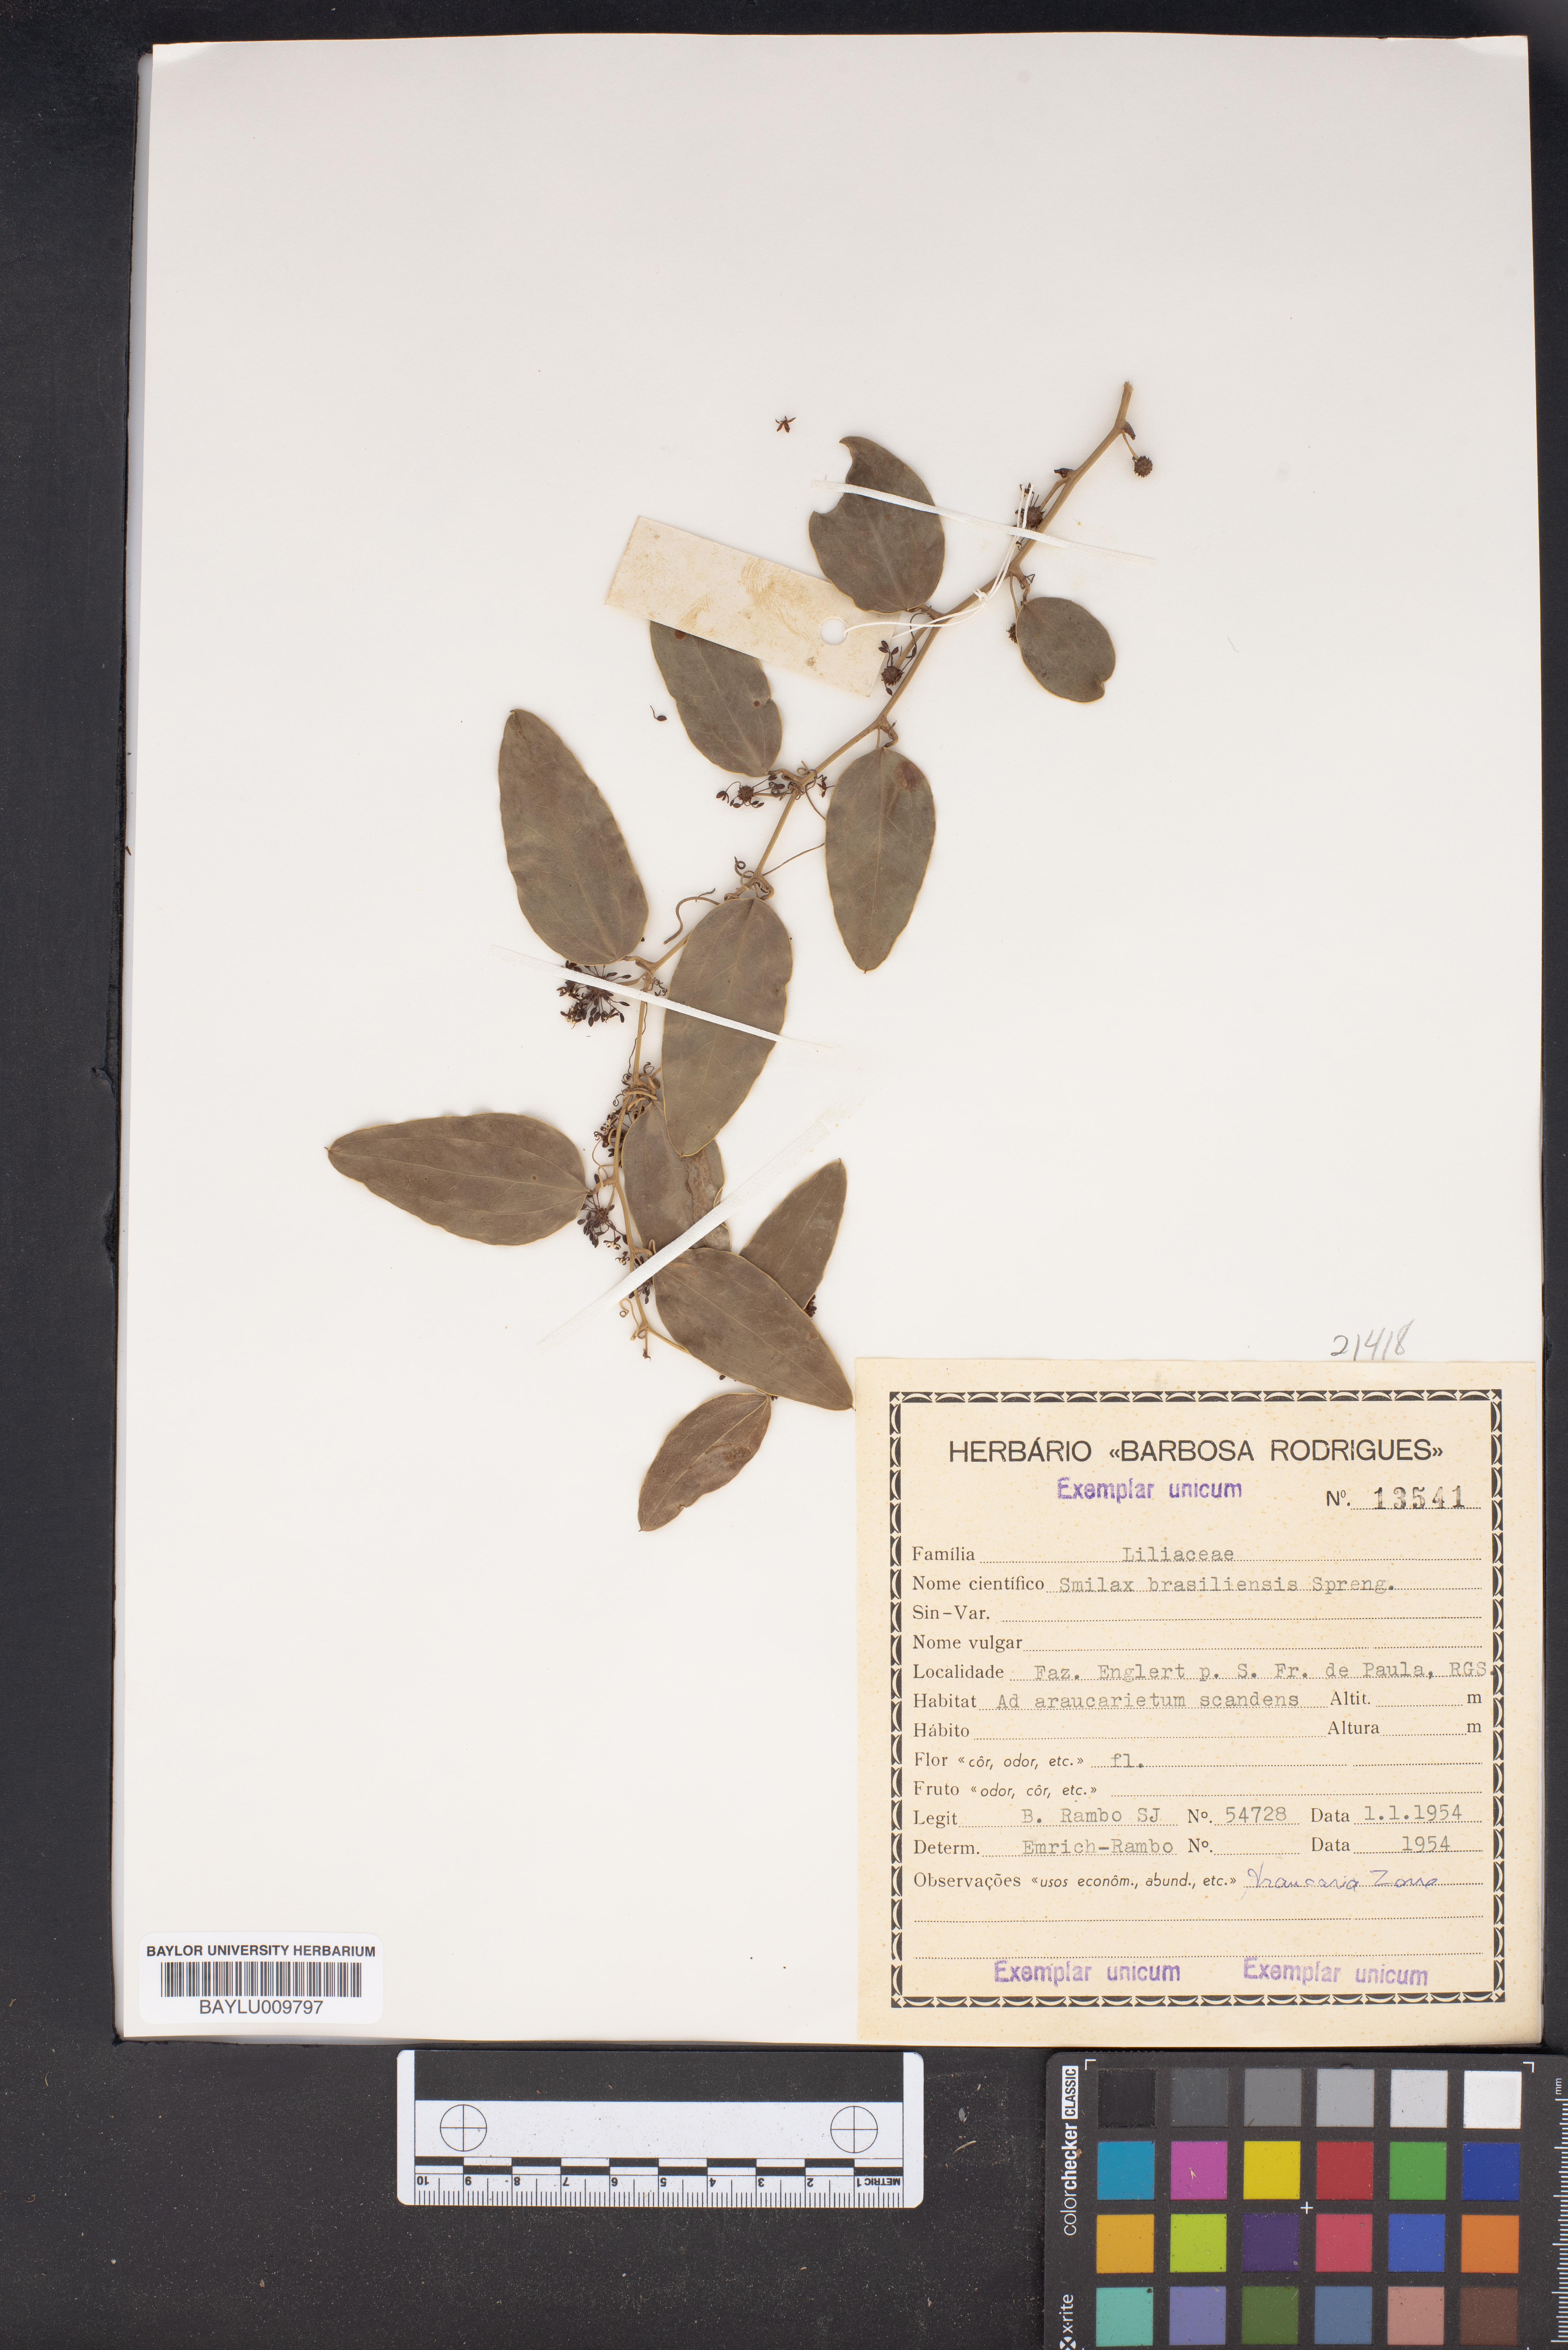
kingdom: Plantae
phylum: Tracheophyta
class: Liliopsida
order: Liliales
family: Smilacaceae
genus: Smilax
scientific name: Smilax brasiliensis
